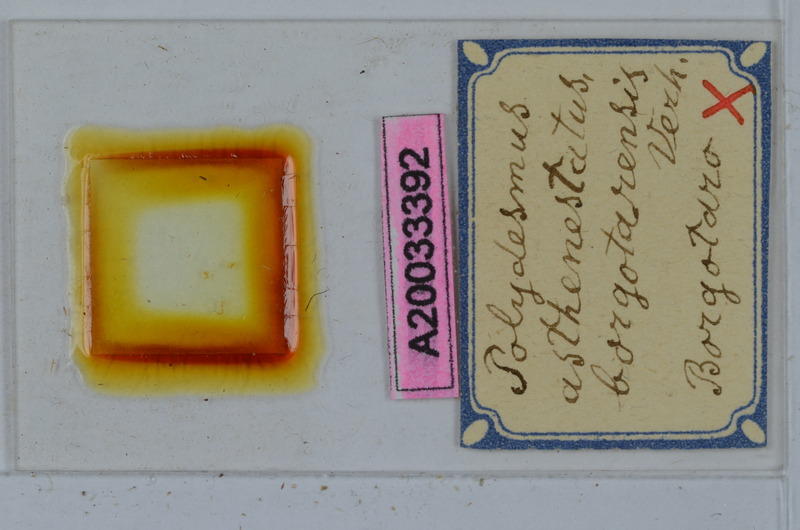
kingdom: Animalia
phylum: Arthropoda
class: Diplopoda
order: Polydesmida
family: Polydesmidae
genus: Polydesmus
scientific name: Polydesmus asthenestatus
